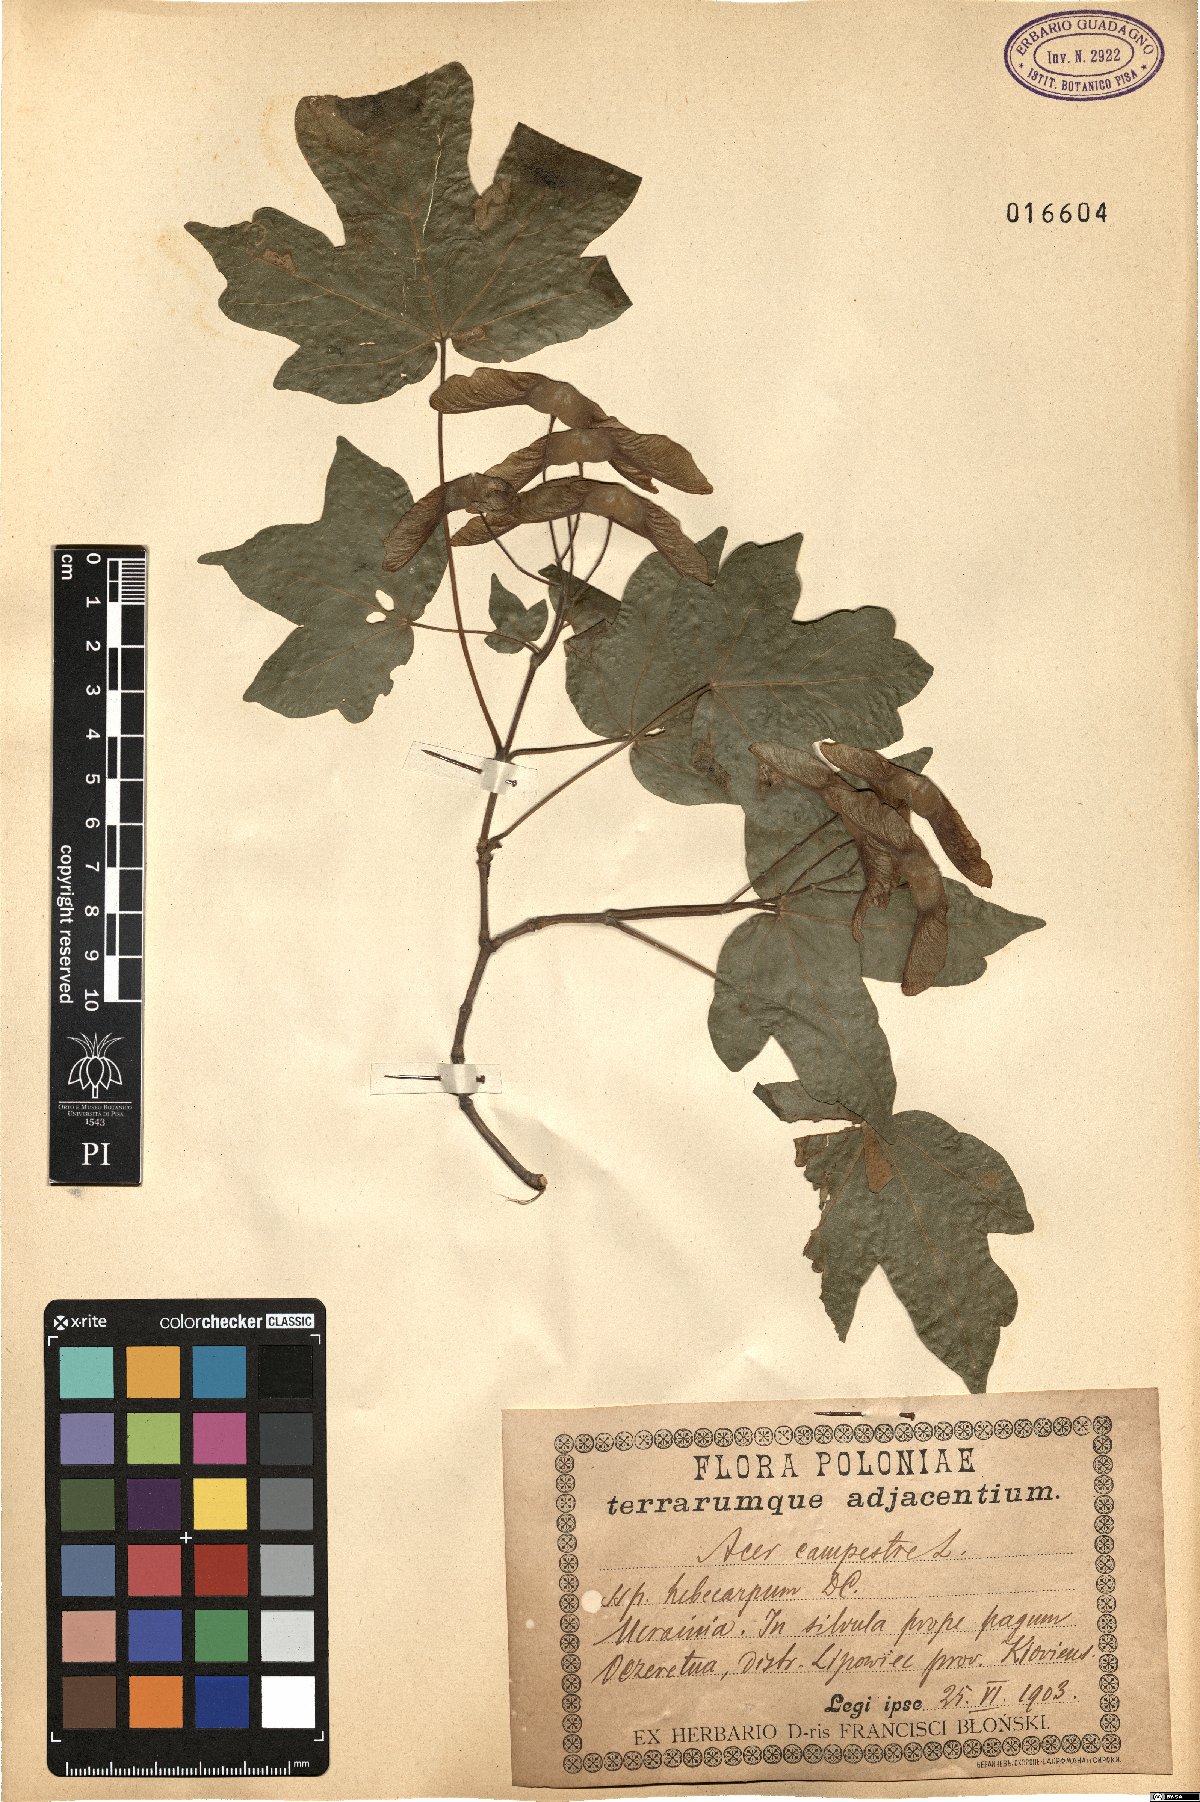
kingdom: Plantae
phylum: Tracheophyta
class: Magnoliopsida
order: Sapindales
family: Sapindaceae
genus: Acer
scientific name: Acer campestre
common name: Field maple
